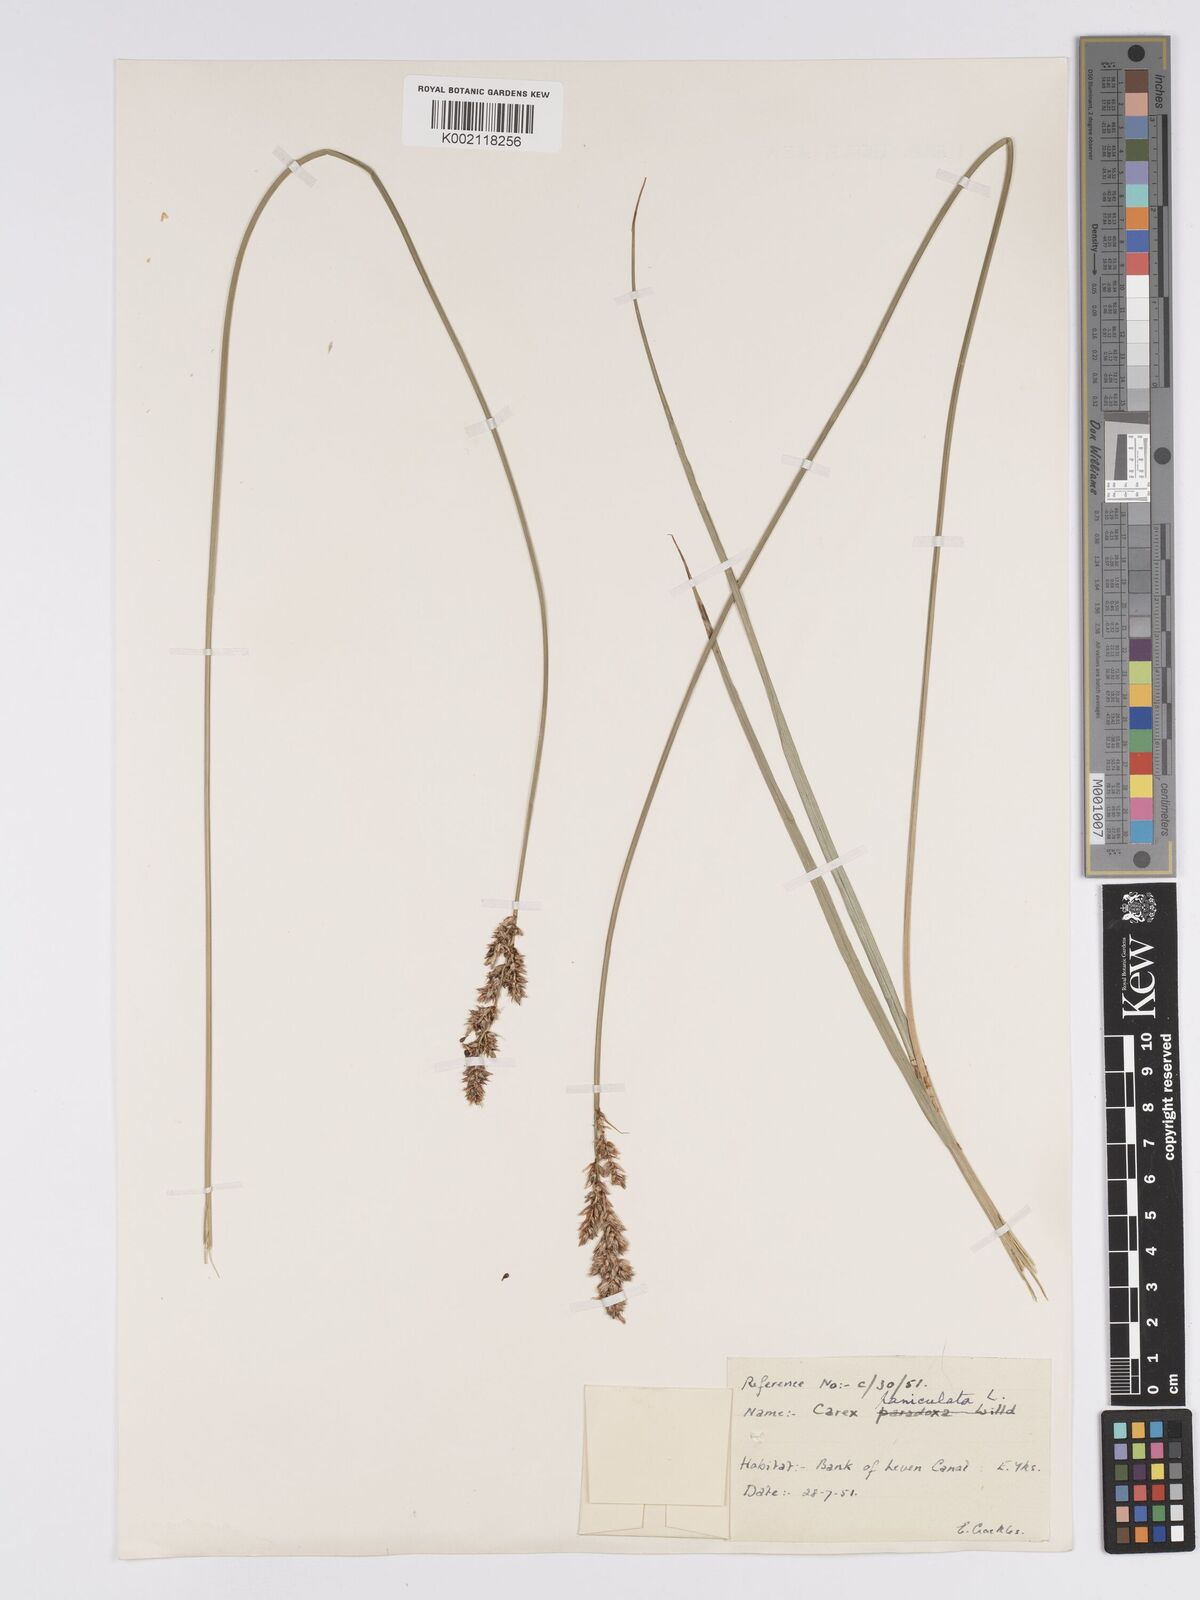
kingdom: Plantae
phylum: Tracheophyta
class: Liliopsida
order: Poales
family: Cyperaceae
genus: Carex
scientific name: Carex paniculata
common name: Greater tussock-sedge
